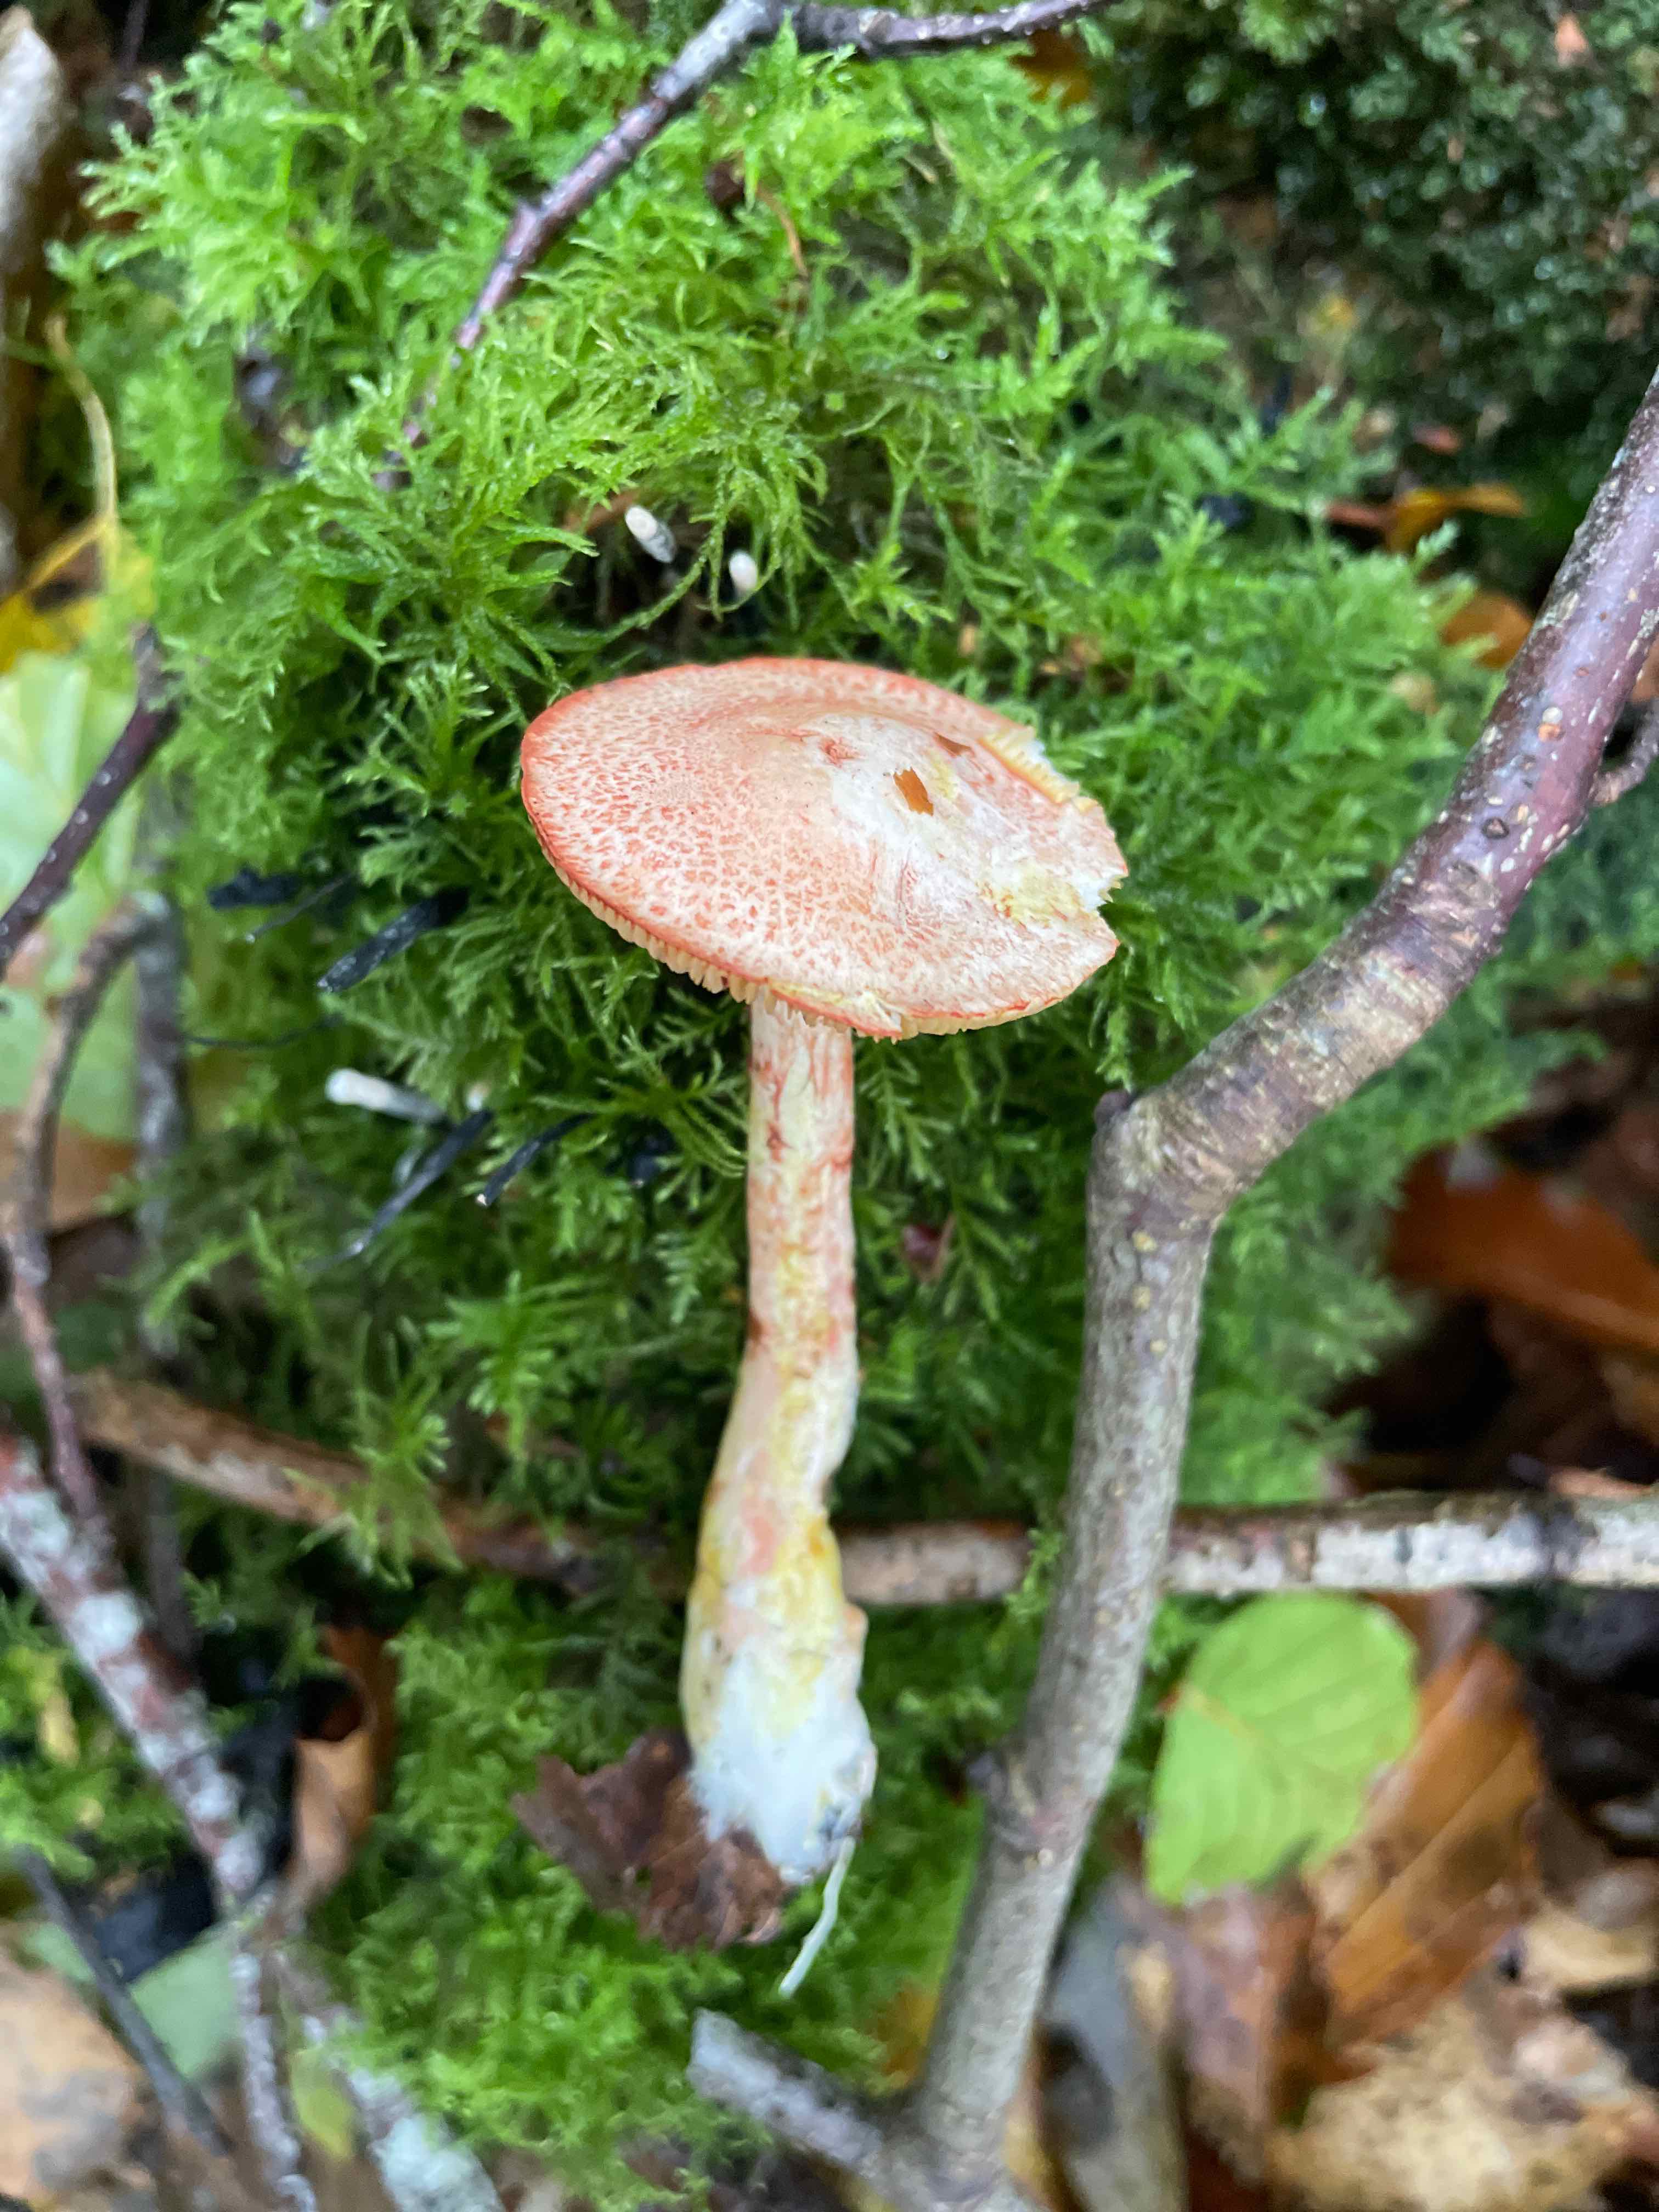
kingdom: Fungi
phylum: Basidiomycota
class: Agaricomycetes
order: Agaricales
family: Cortinariaceae
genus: Cortinarius
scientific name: Cortinarius bolaris
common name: cinnoberskællet slørhat
